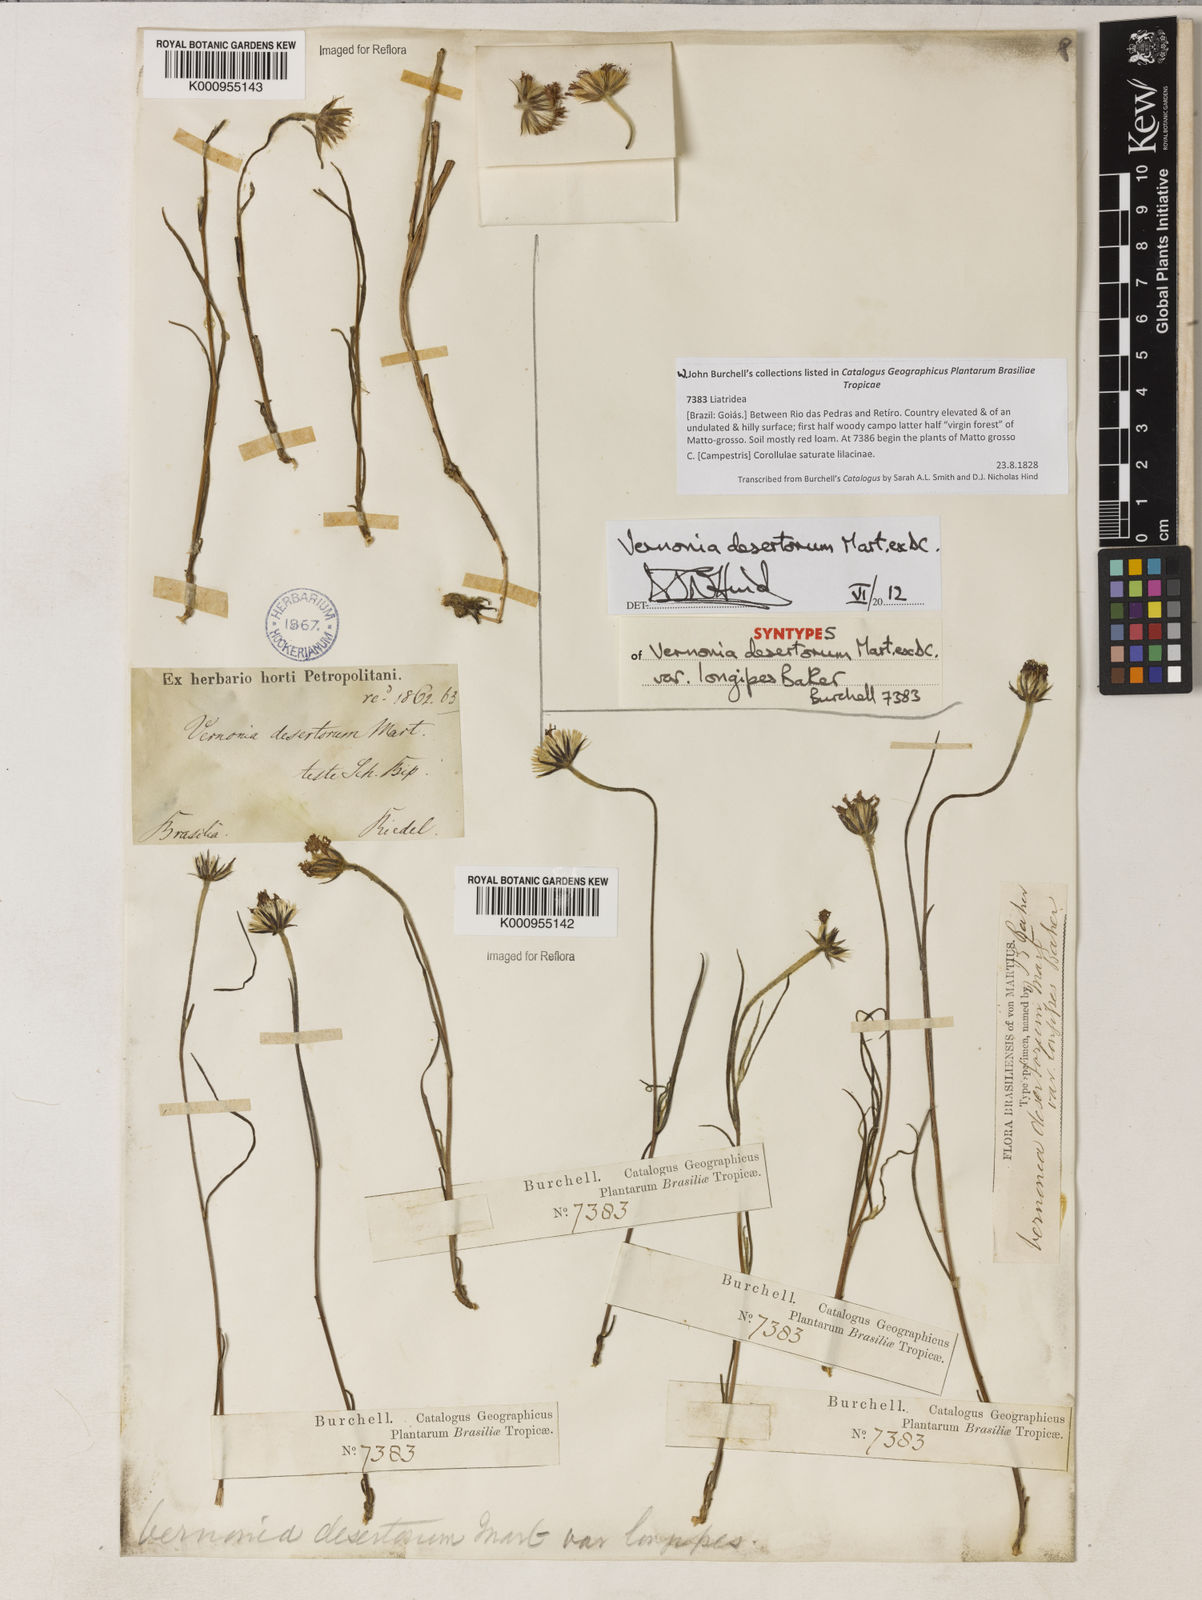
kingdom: Plantae
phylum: Tracheophyta
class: Magnoliopsida
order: Asterales
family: Asteraceae
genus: Chrysolaena
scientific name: Chrysolaena desertorum
